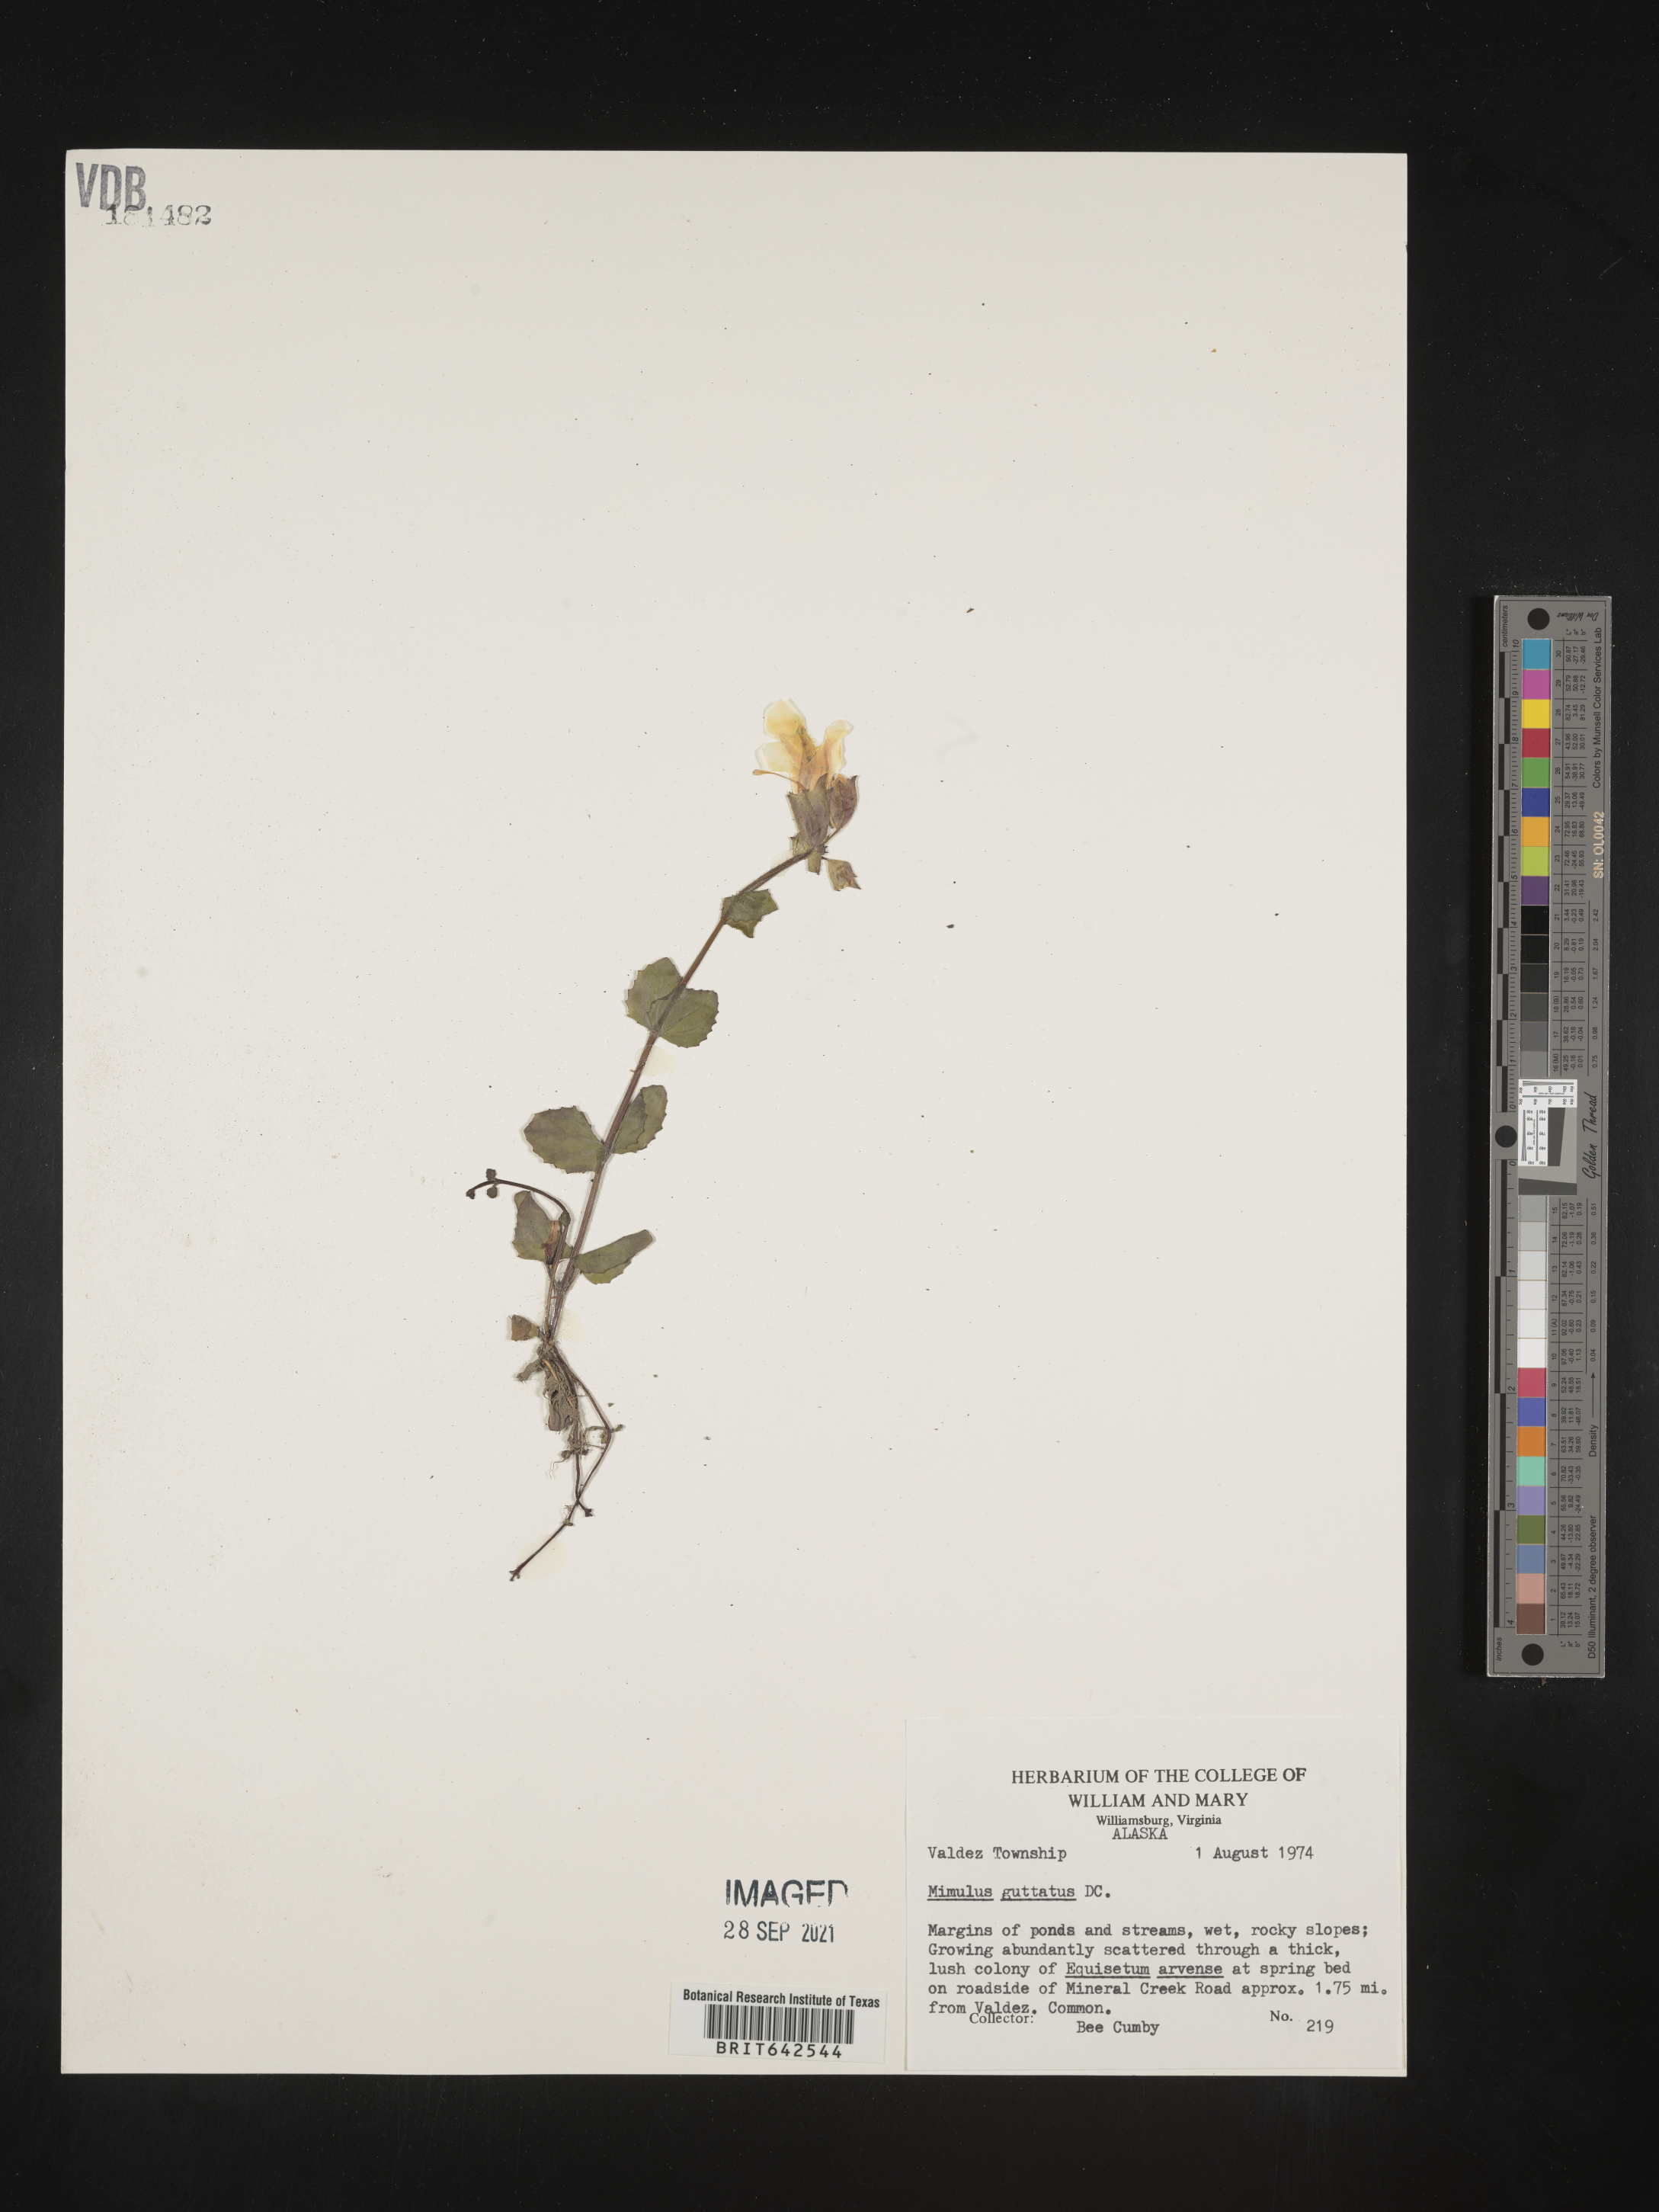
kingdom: Plantae
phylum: Tracheophyta
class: Magnoliopsida
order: Lamiales
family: Phrymaceae
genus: Mimulus
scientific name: Mimulus
